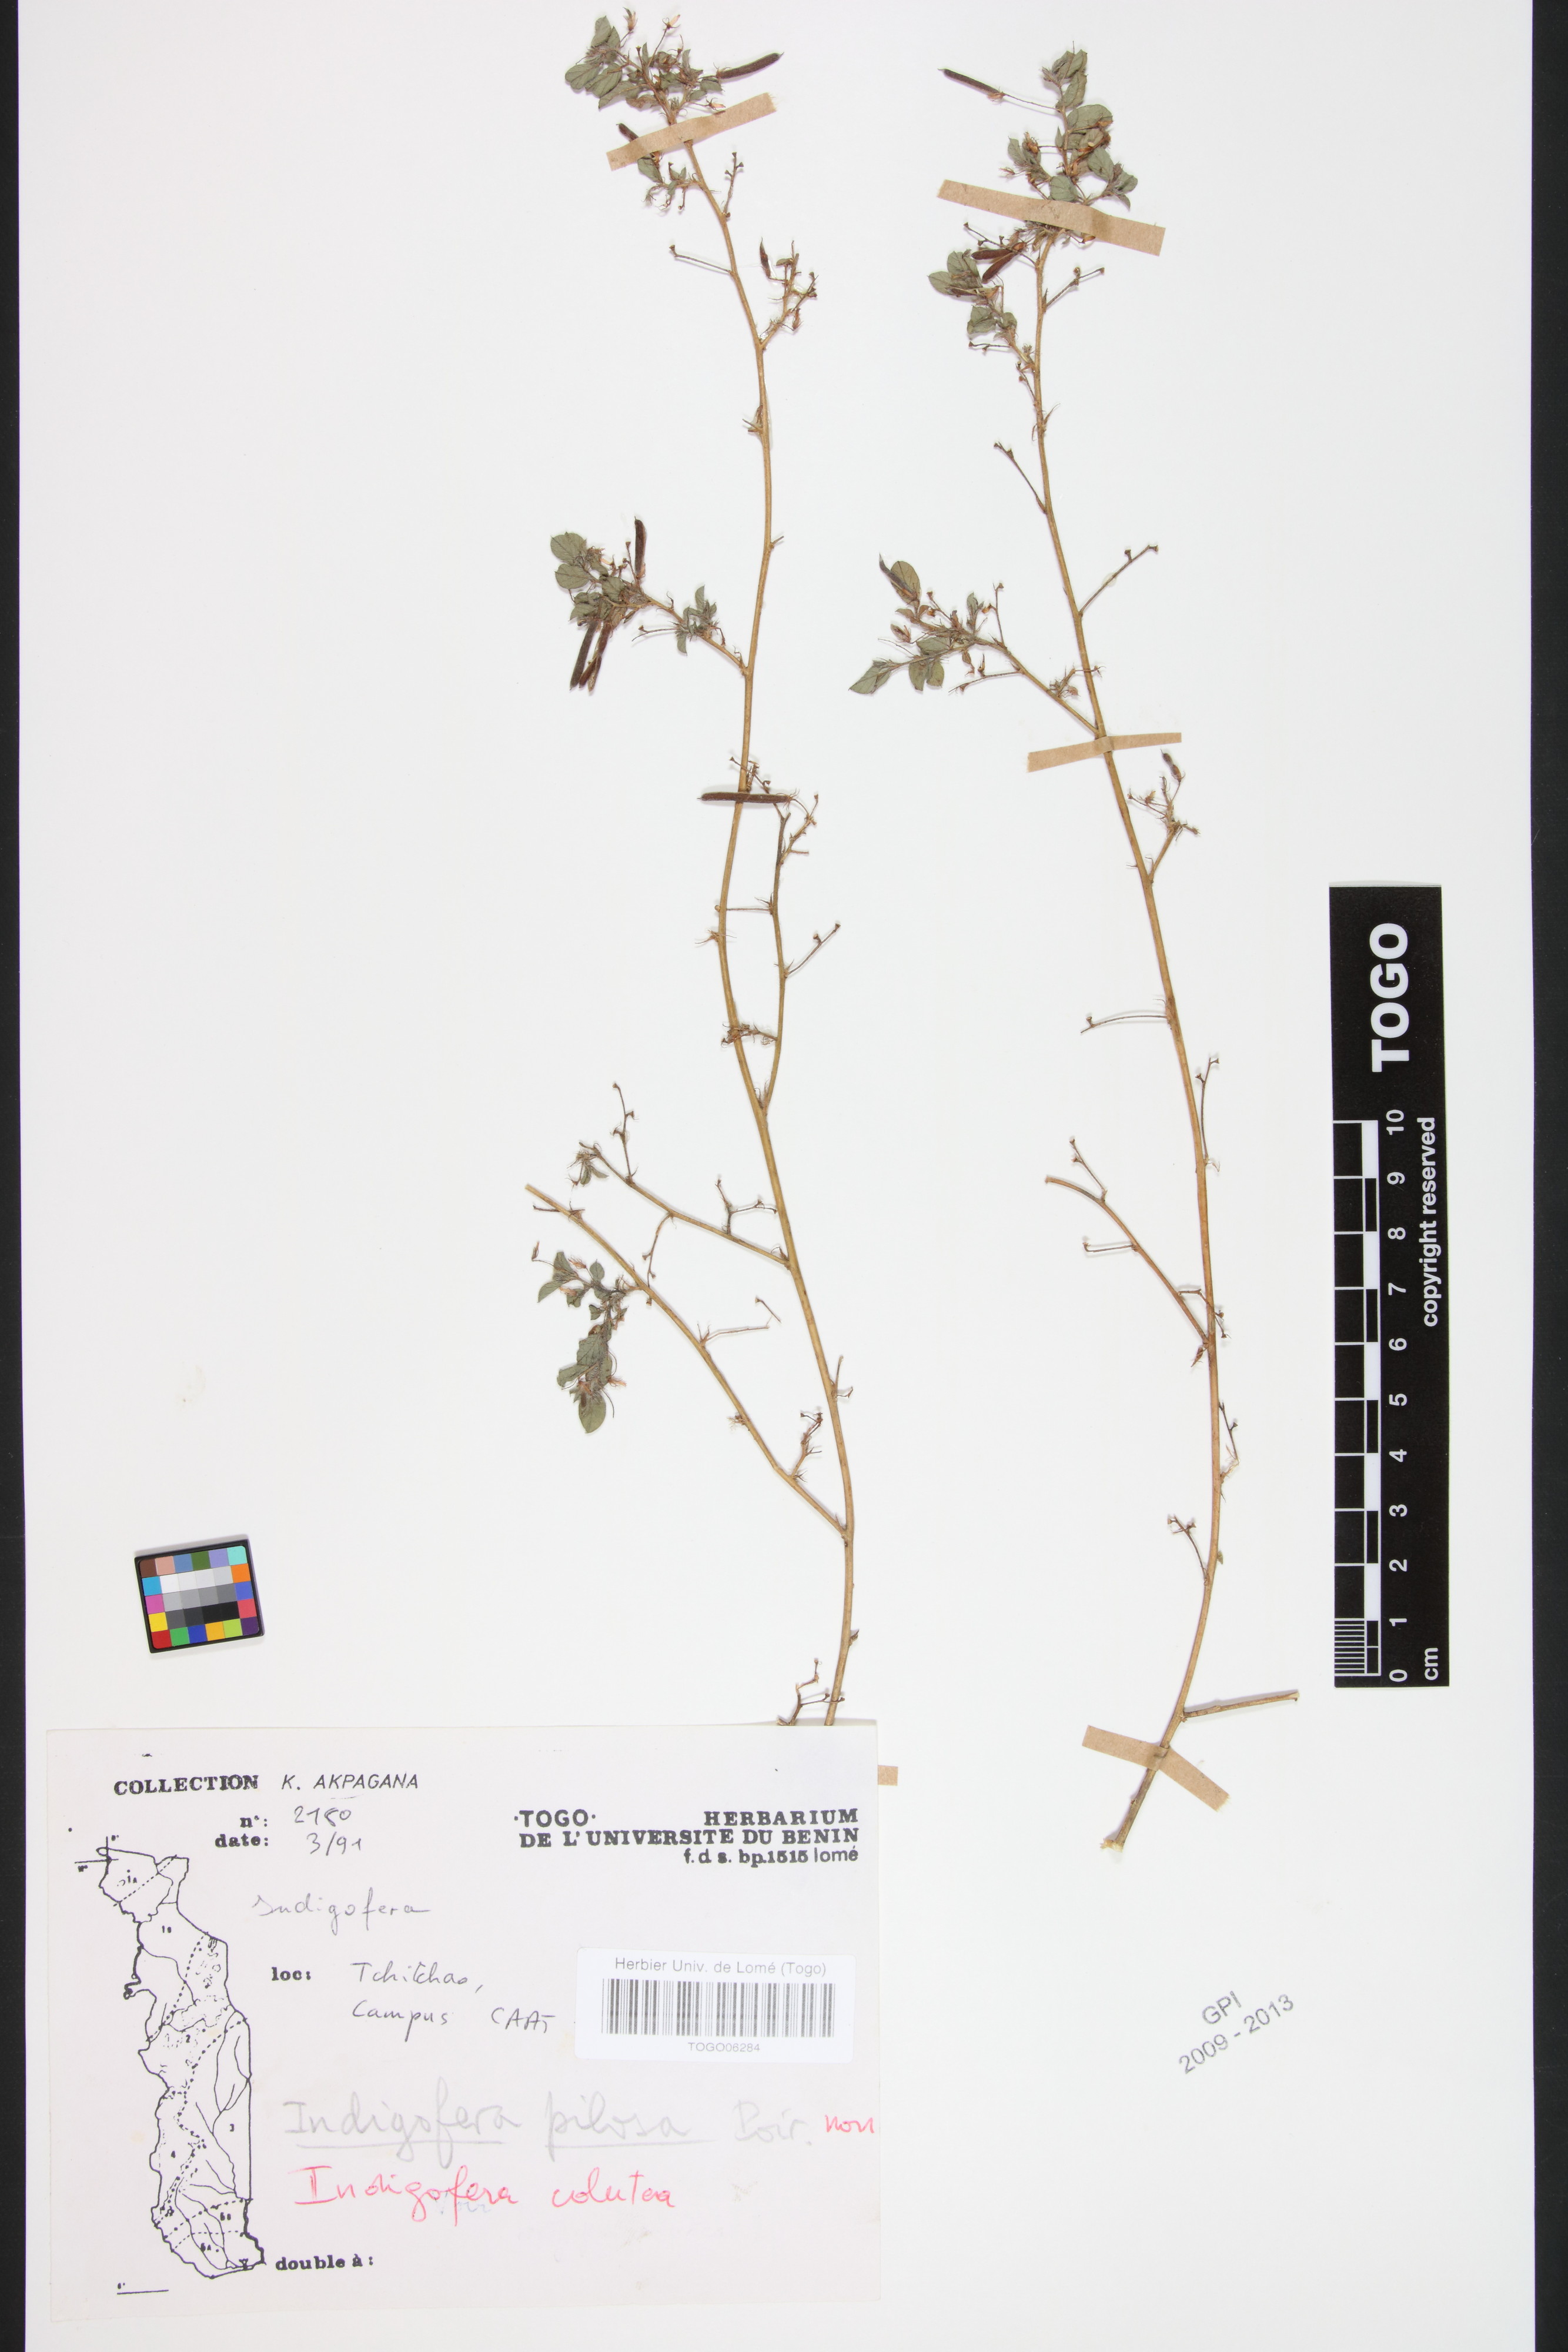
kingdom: Plantae
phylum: Tracheophyta
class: Magnoliopsida
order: Fabales
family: Fabaceae
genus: Indigofera
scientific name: Indigofera colutea
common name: Rusty indigo
